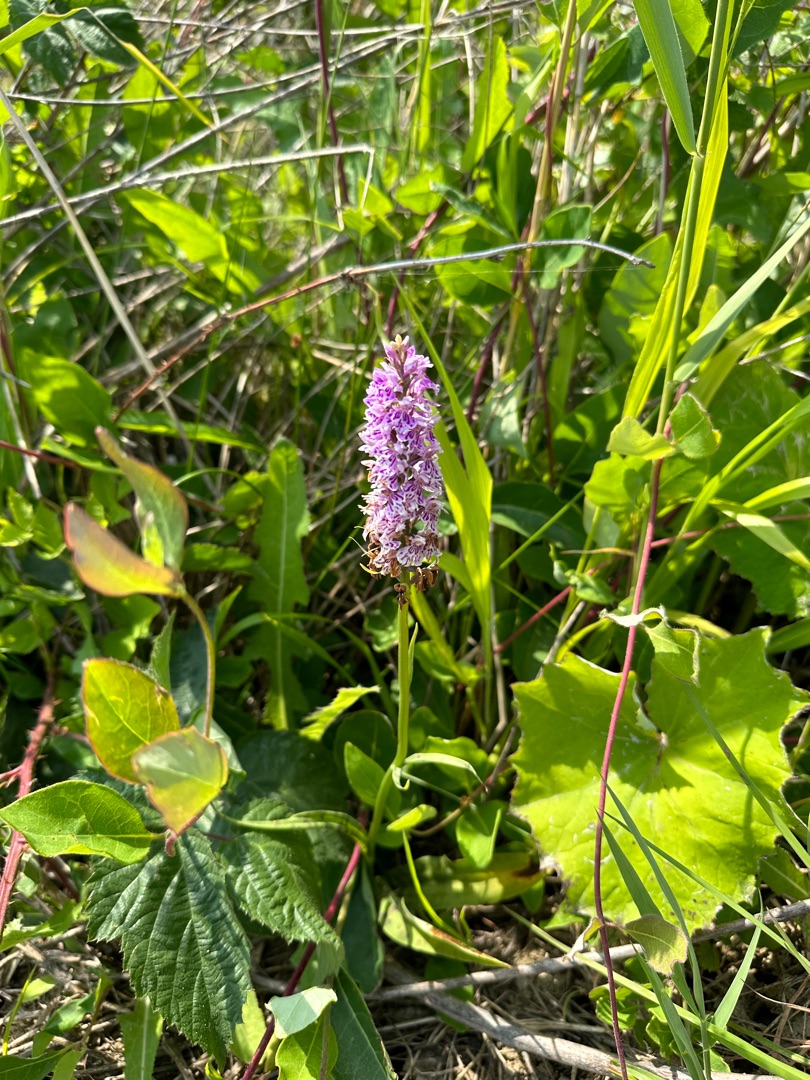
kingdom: Plantae
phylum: Tracheophyta
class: Liliopsida
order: Asparagales
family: Orchidaceae
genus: Dactylorhiza
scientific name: Dactylorhiza maculata
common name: Skov-gøgeurt
